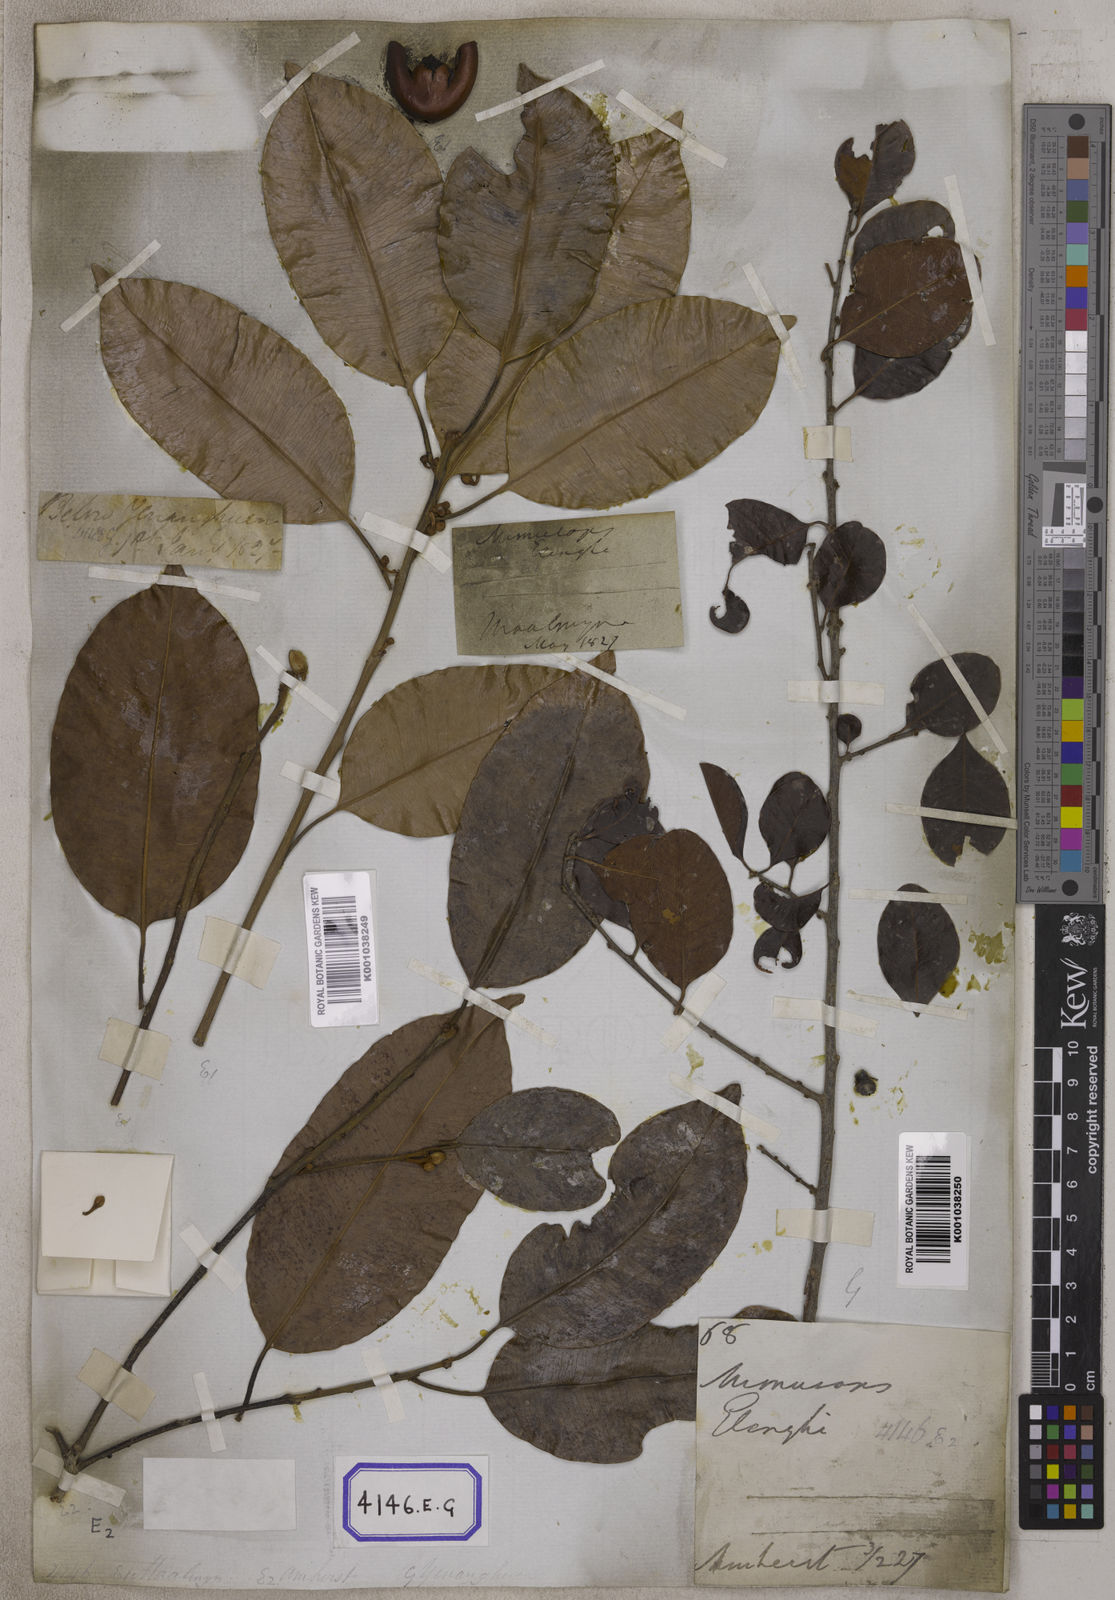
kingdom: Plantae
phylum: Tracheophyta
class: Magnoliopsida
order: Ericales
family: Sapotaceae
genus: Mimusops
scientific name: Mimusops
